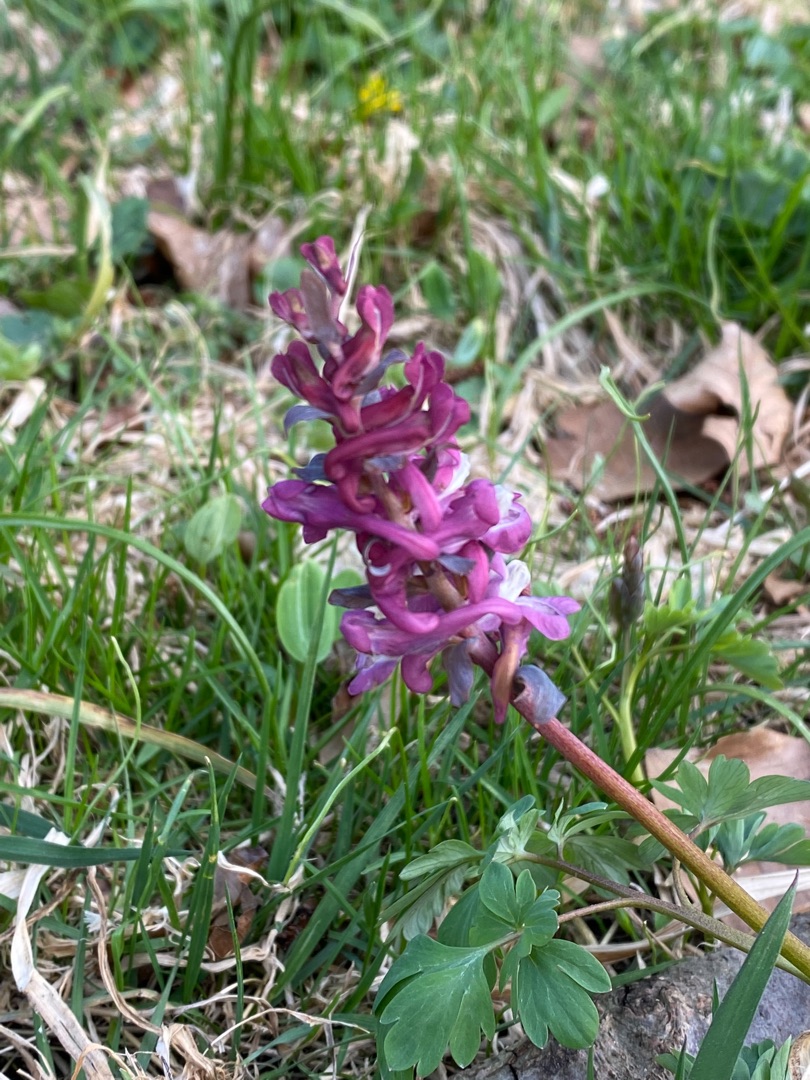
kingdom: Plantae
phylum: Tracheophyta
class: Magnoliopsida
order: Ranunculales
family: Papaveraceae
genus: Corydalis
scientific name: Corydalis cava
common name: Hulrodet lærkespore
